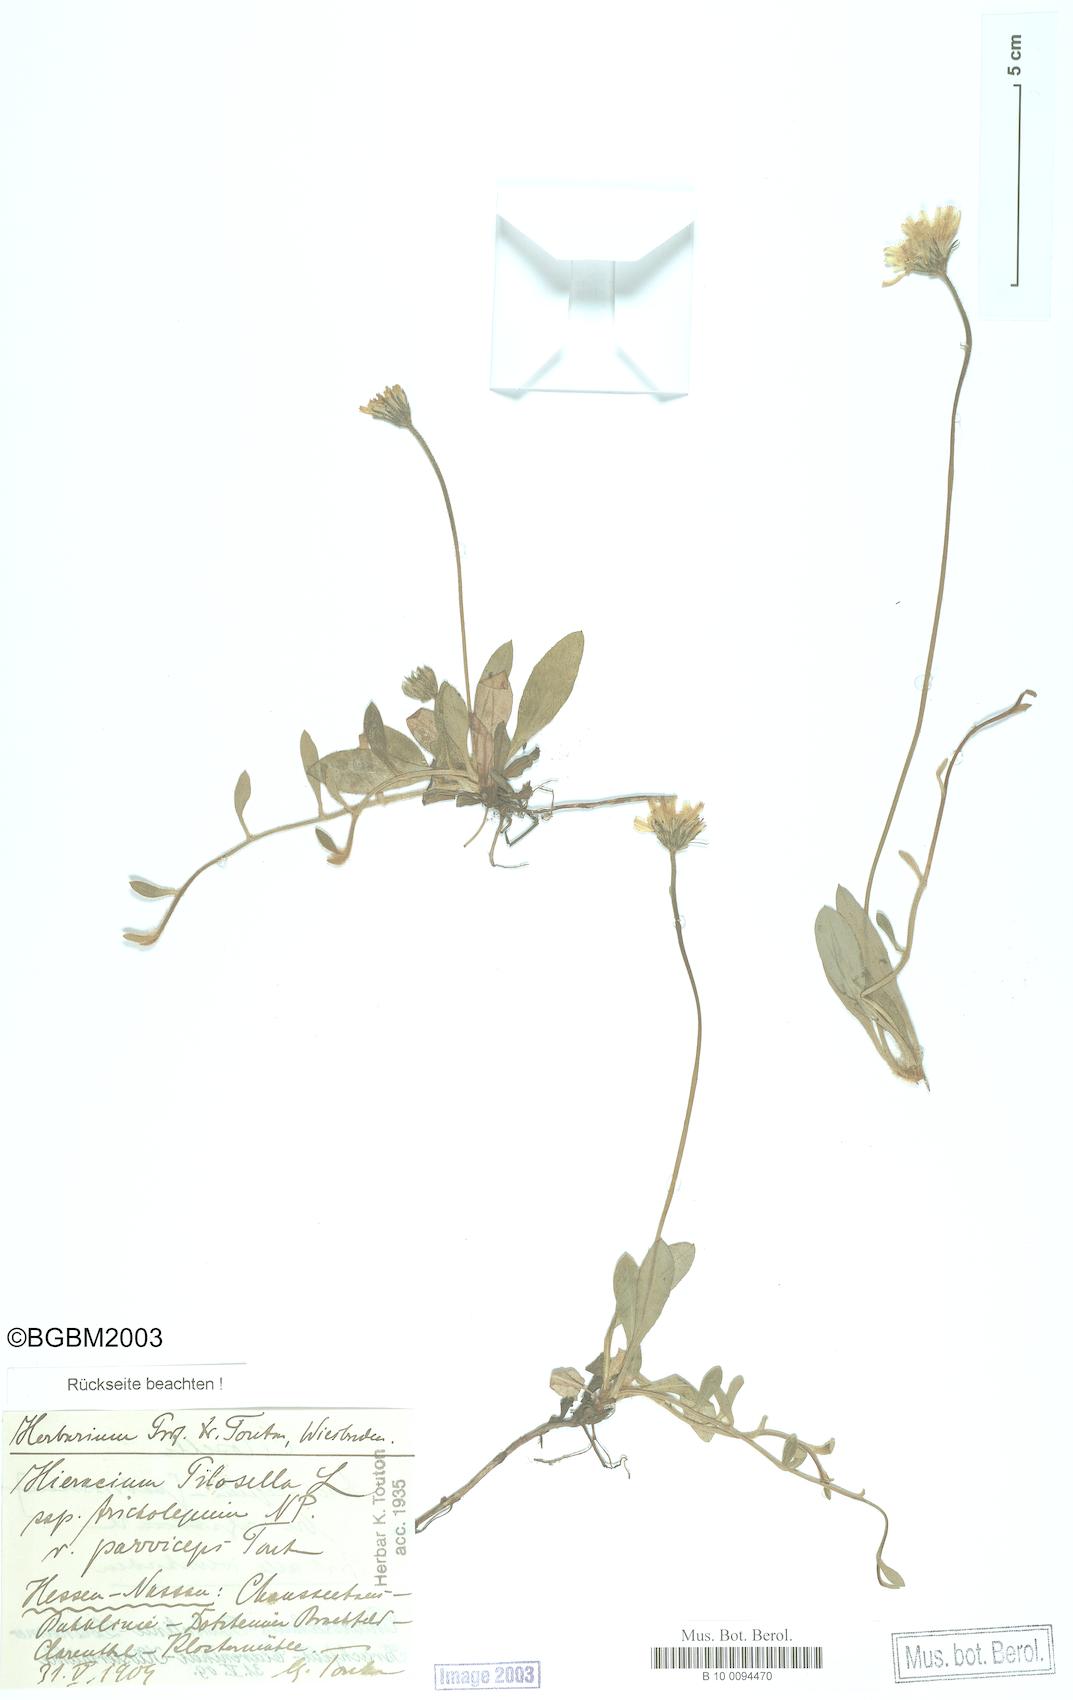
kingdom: Plantae
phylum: Tracheophyta
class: Magnoliopsida
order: Asterales
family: Asteraceae
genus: Pilosella
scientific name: Pilosella officinarum
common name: Mouse-ear hawkweed
